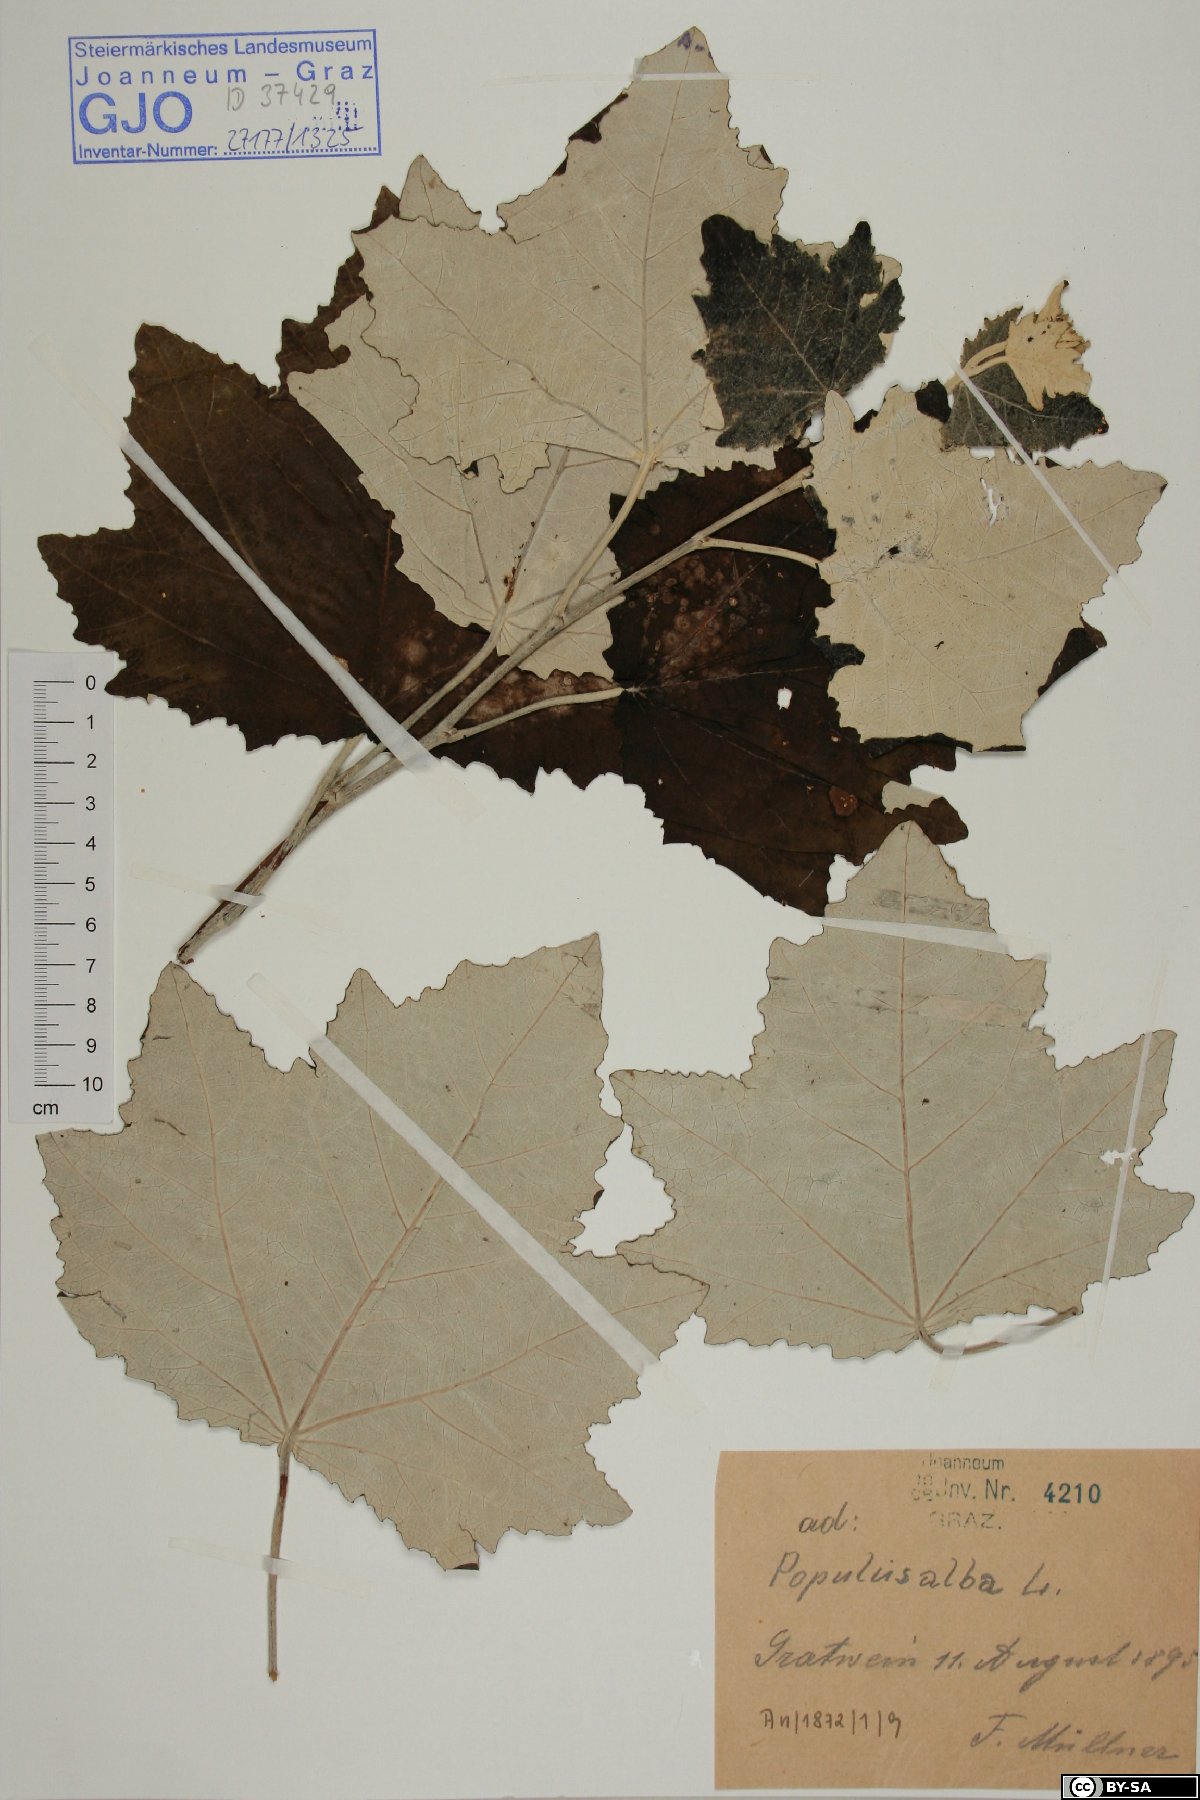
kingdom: Plantae
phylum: Tracheophyta
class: Magnoliopsida
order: Malpighiales
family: Salicaceae
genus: Populus
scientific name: Populus alba
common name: White poplar
